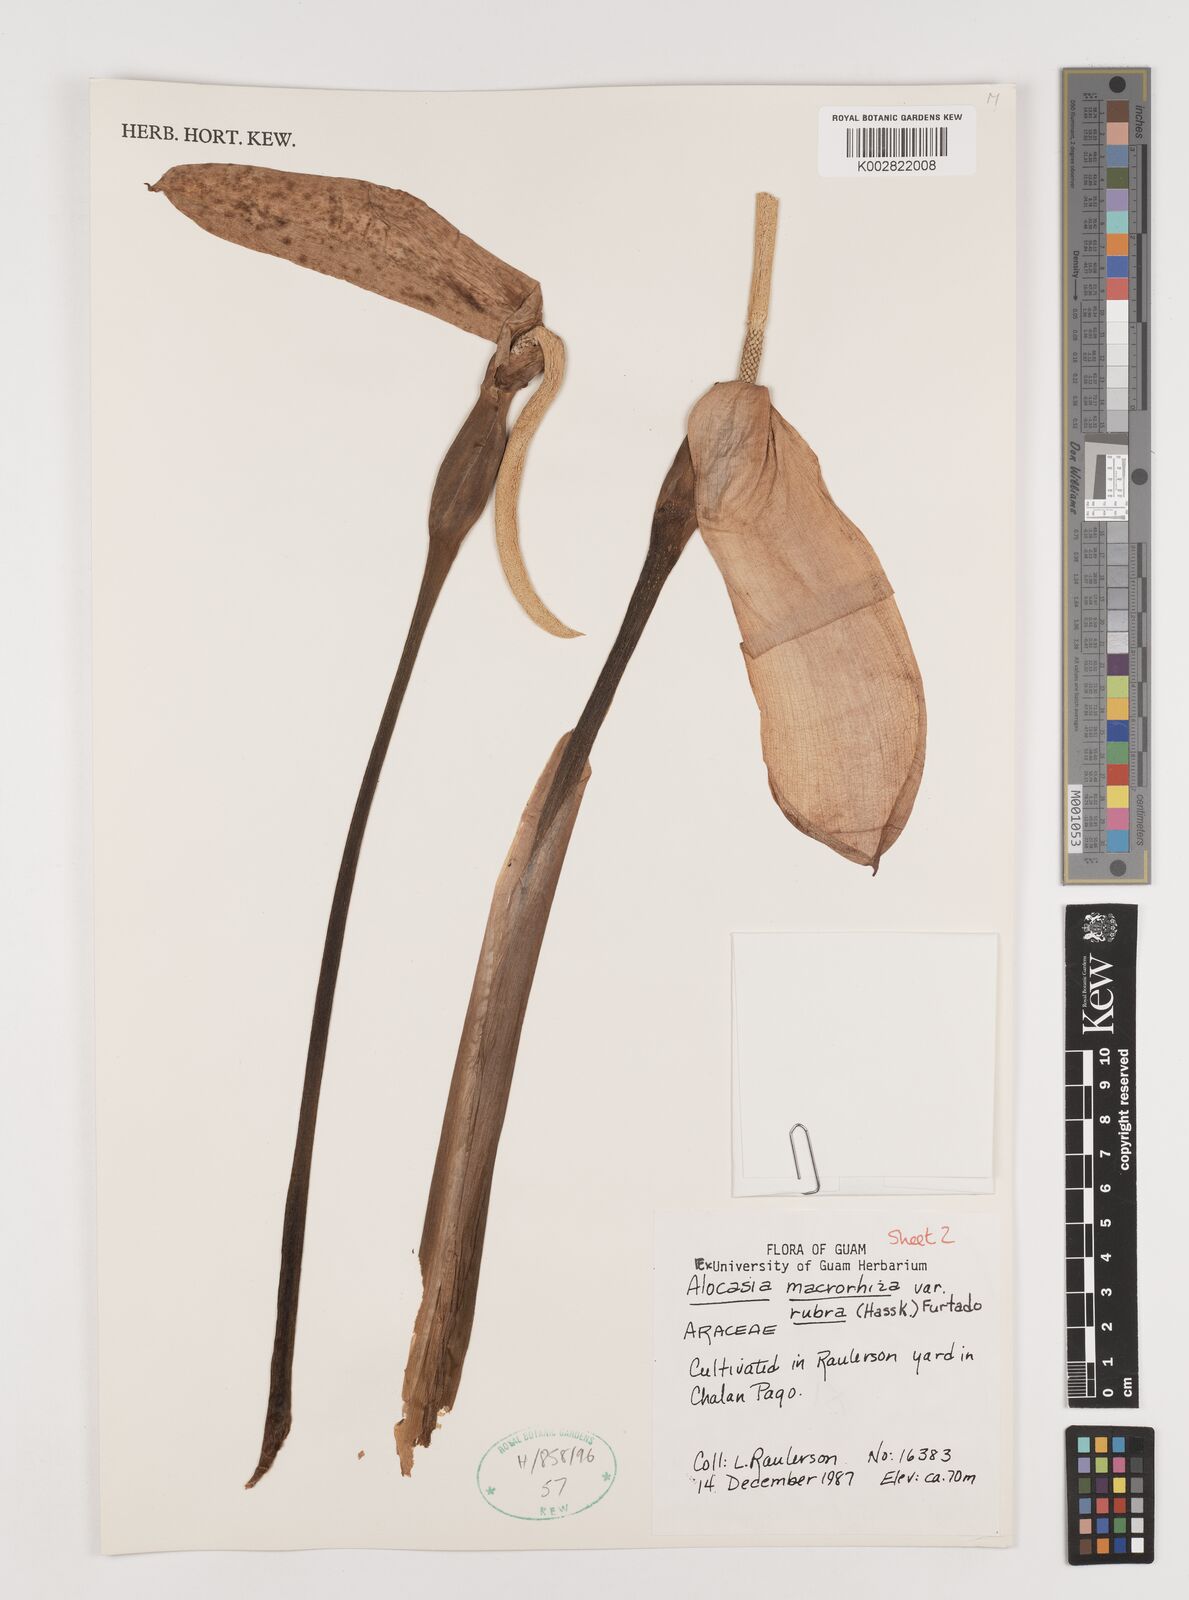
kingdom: Plantae
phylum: Tracheophyta
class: Liliopsida
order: Alismatales
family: Araceae
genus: Alocasia
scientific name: Alocasia macrorrhizos
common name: Giant taro
